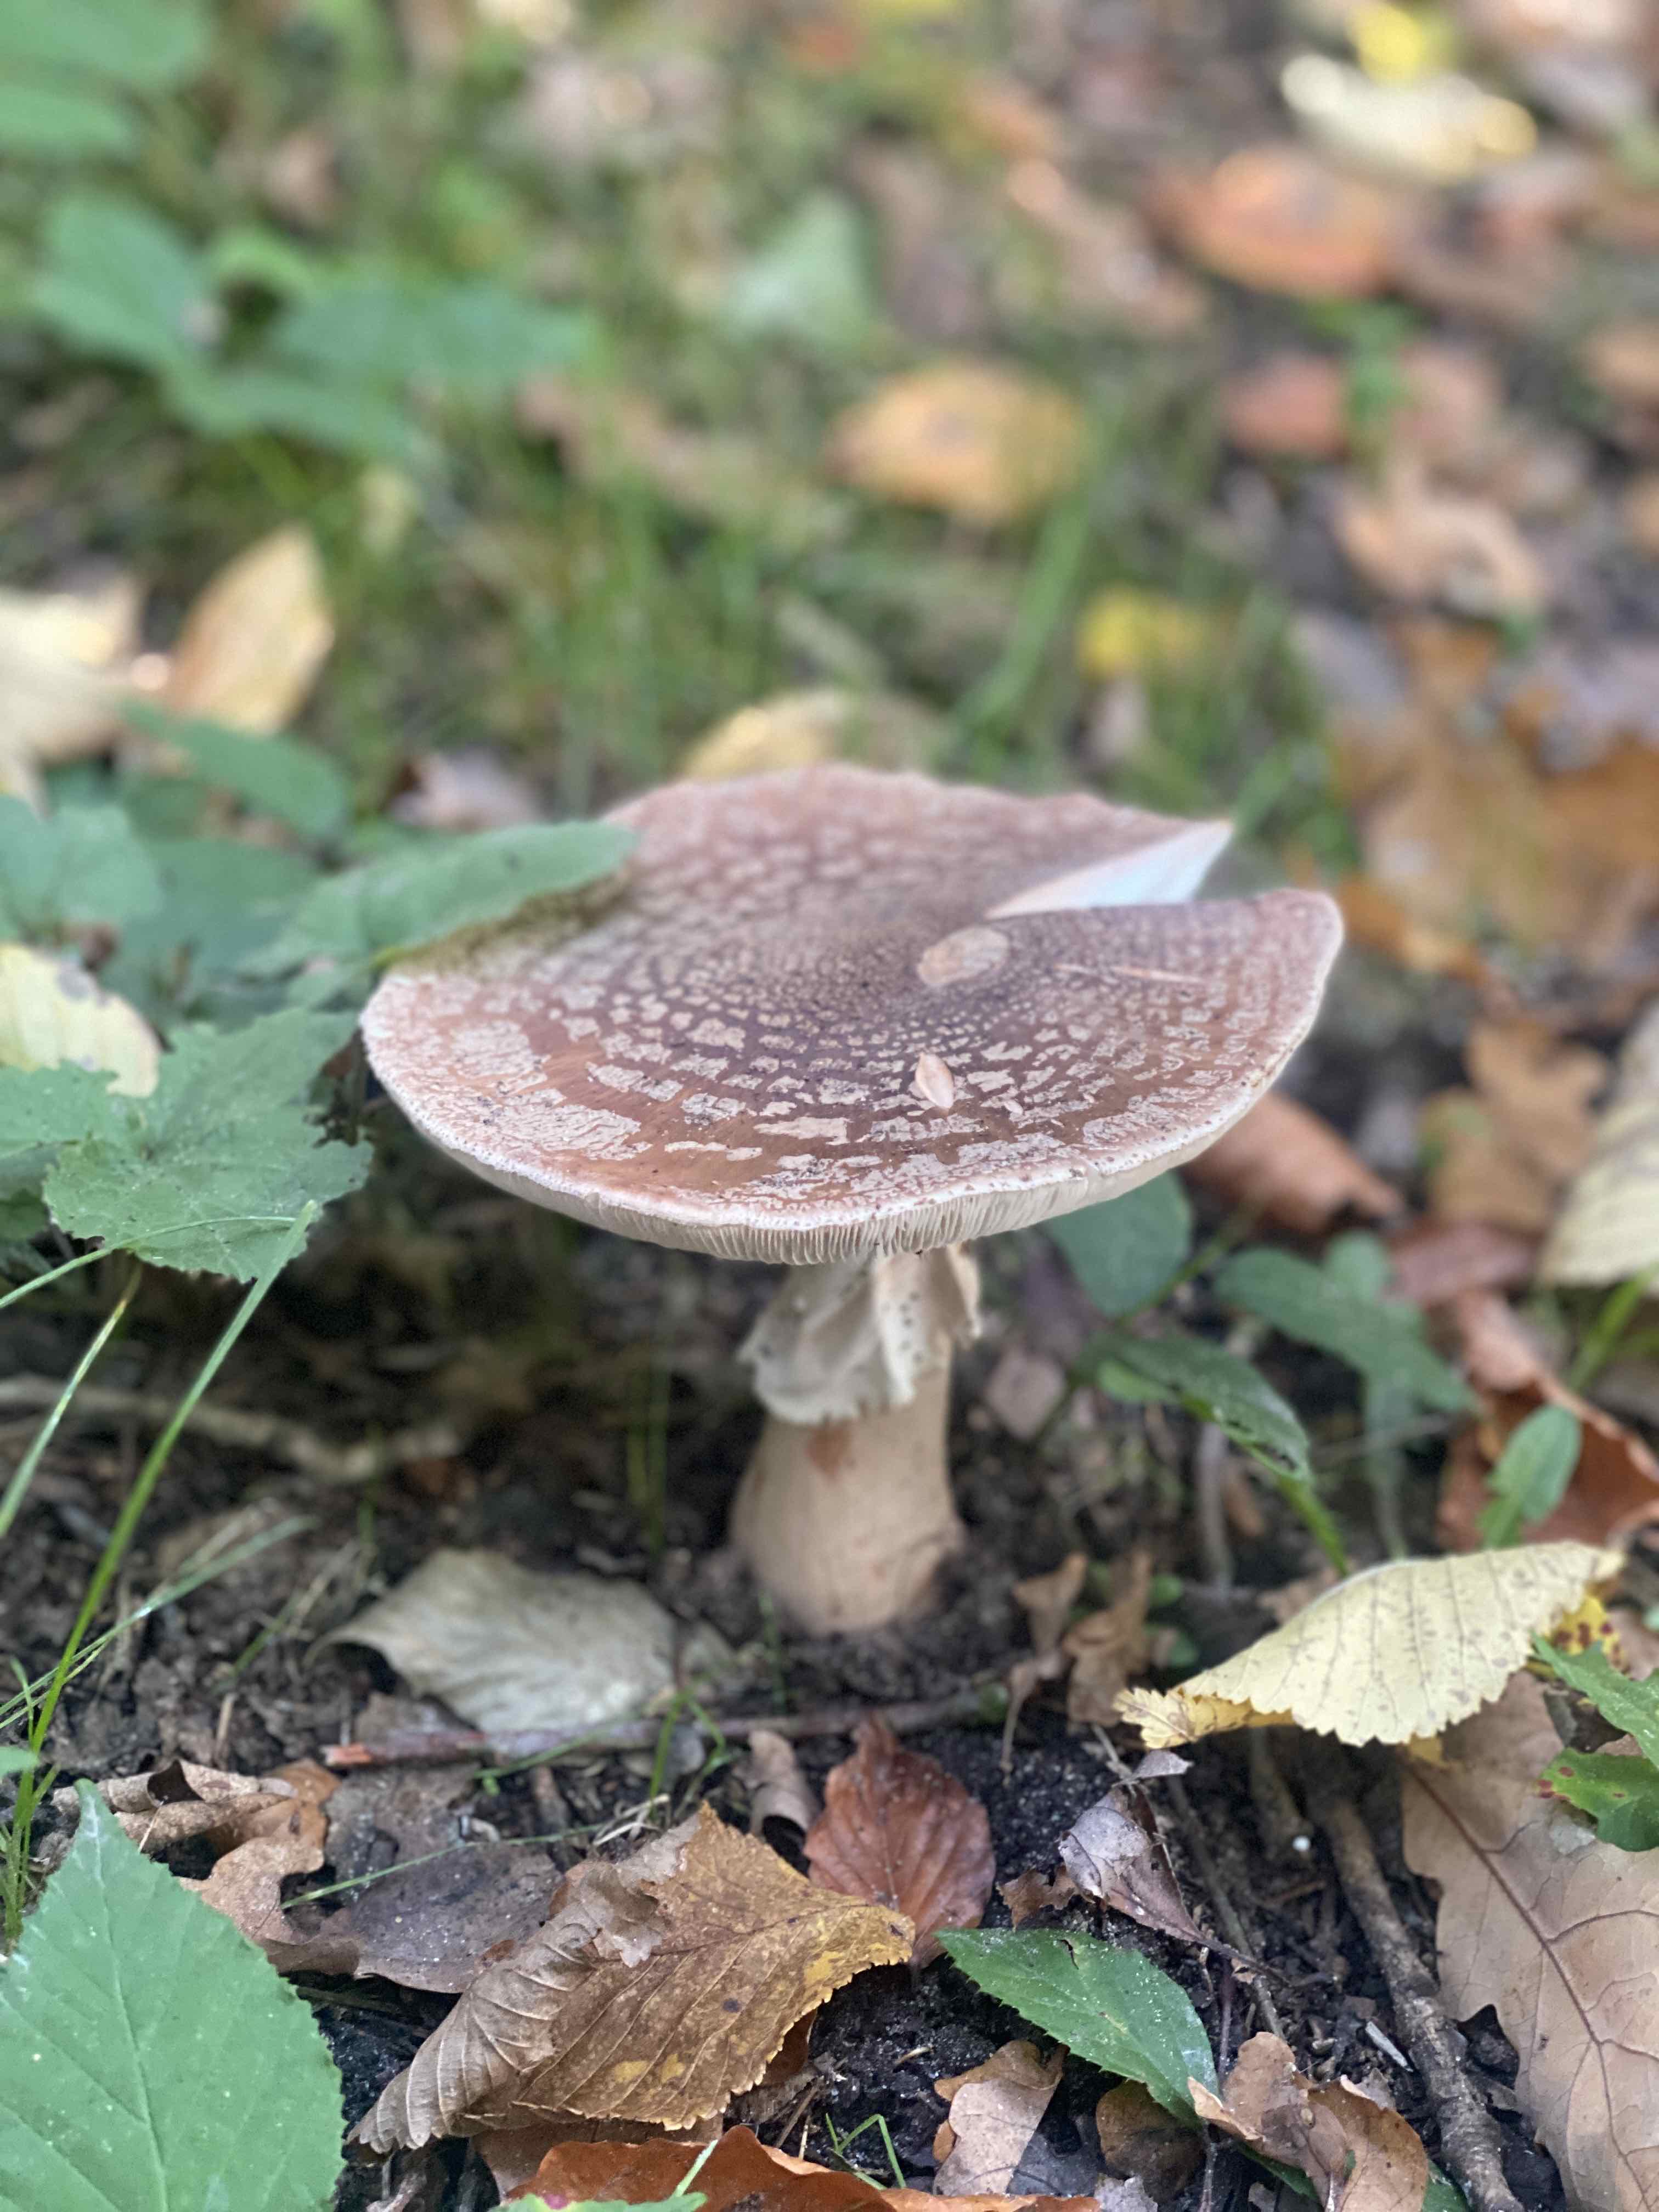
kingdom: Fungi
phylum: Basidiomycota
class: Agaricomycetes
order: Agaricales
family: Amanitaceae
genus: Amanita
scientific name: Amanita rubescens
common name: rødmende fluesvamp
